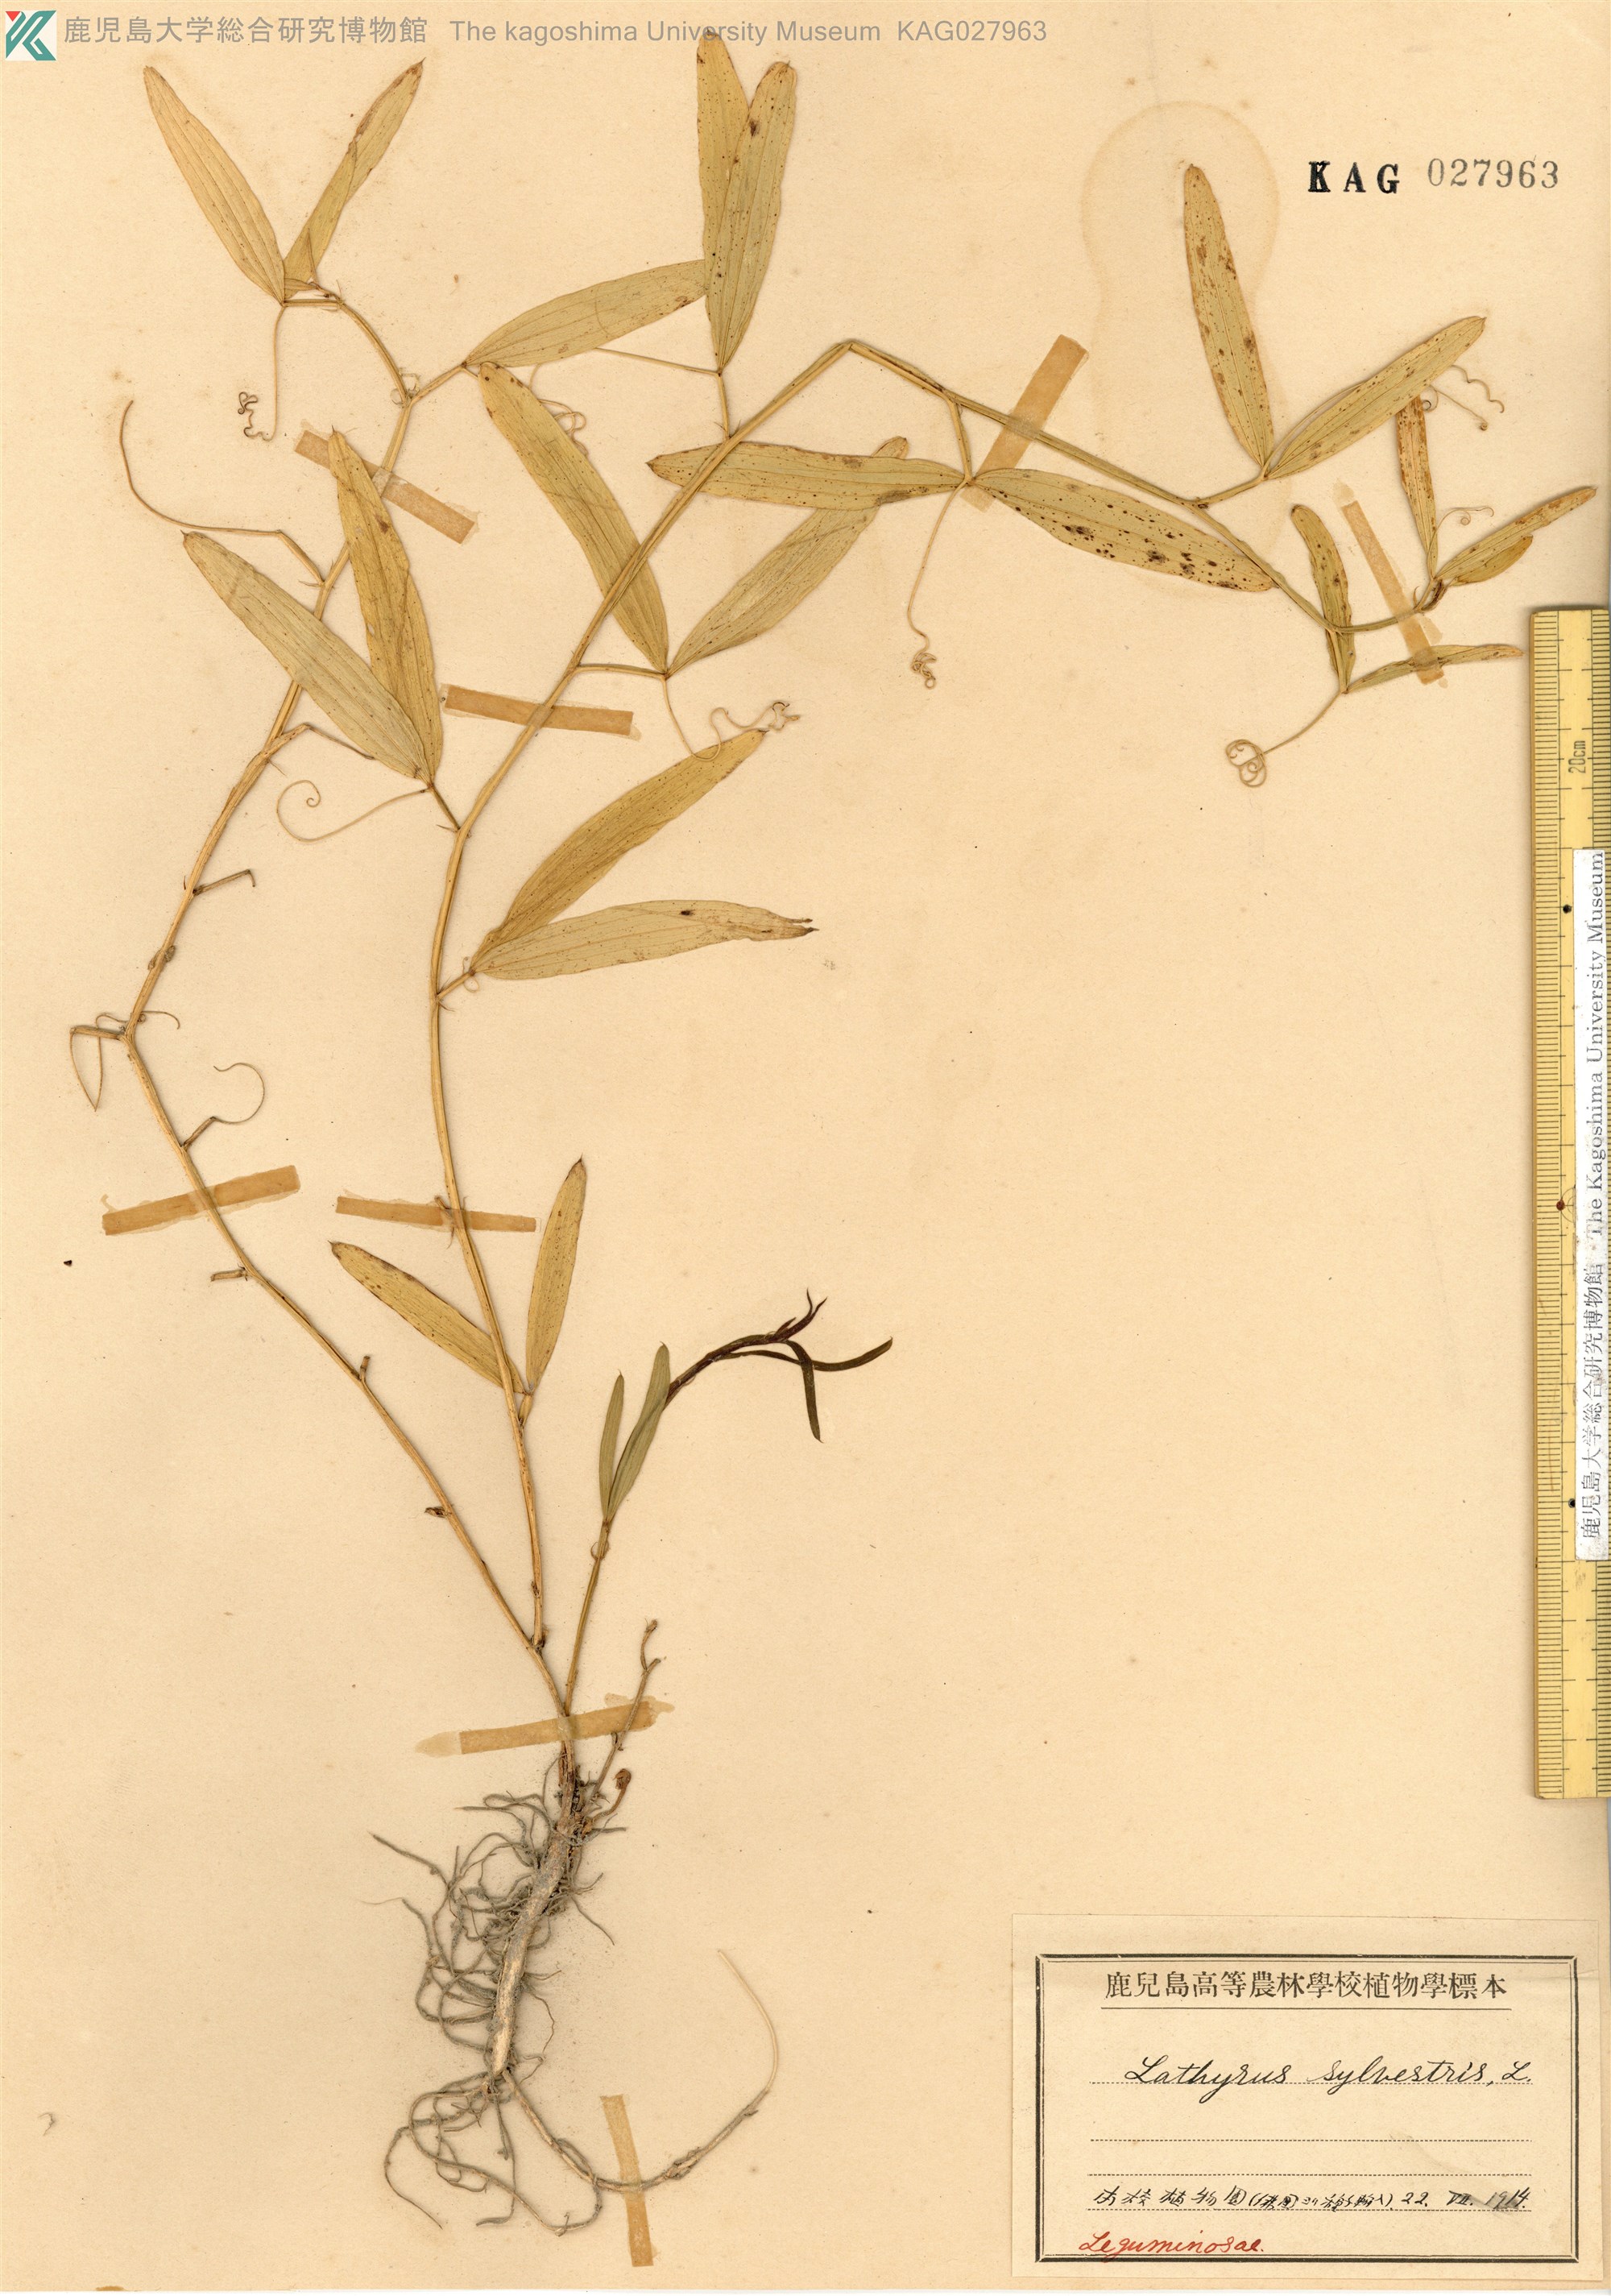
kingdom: Plantae
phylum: Tracheophyta
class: Magnoliopsida
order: Fabales
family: Fabaceae
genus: Lathyrus
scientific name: Lathyrus sylvestris
